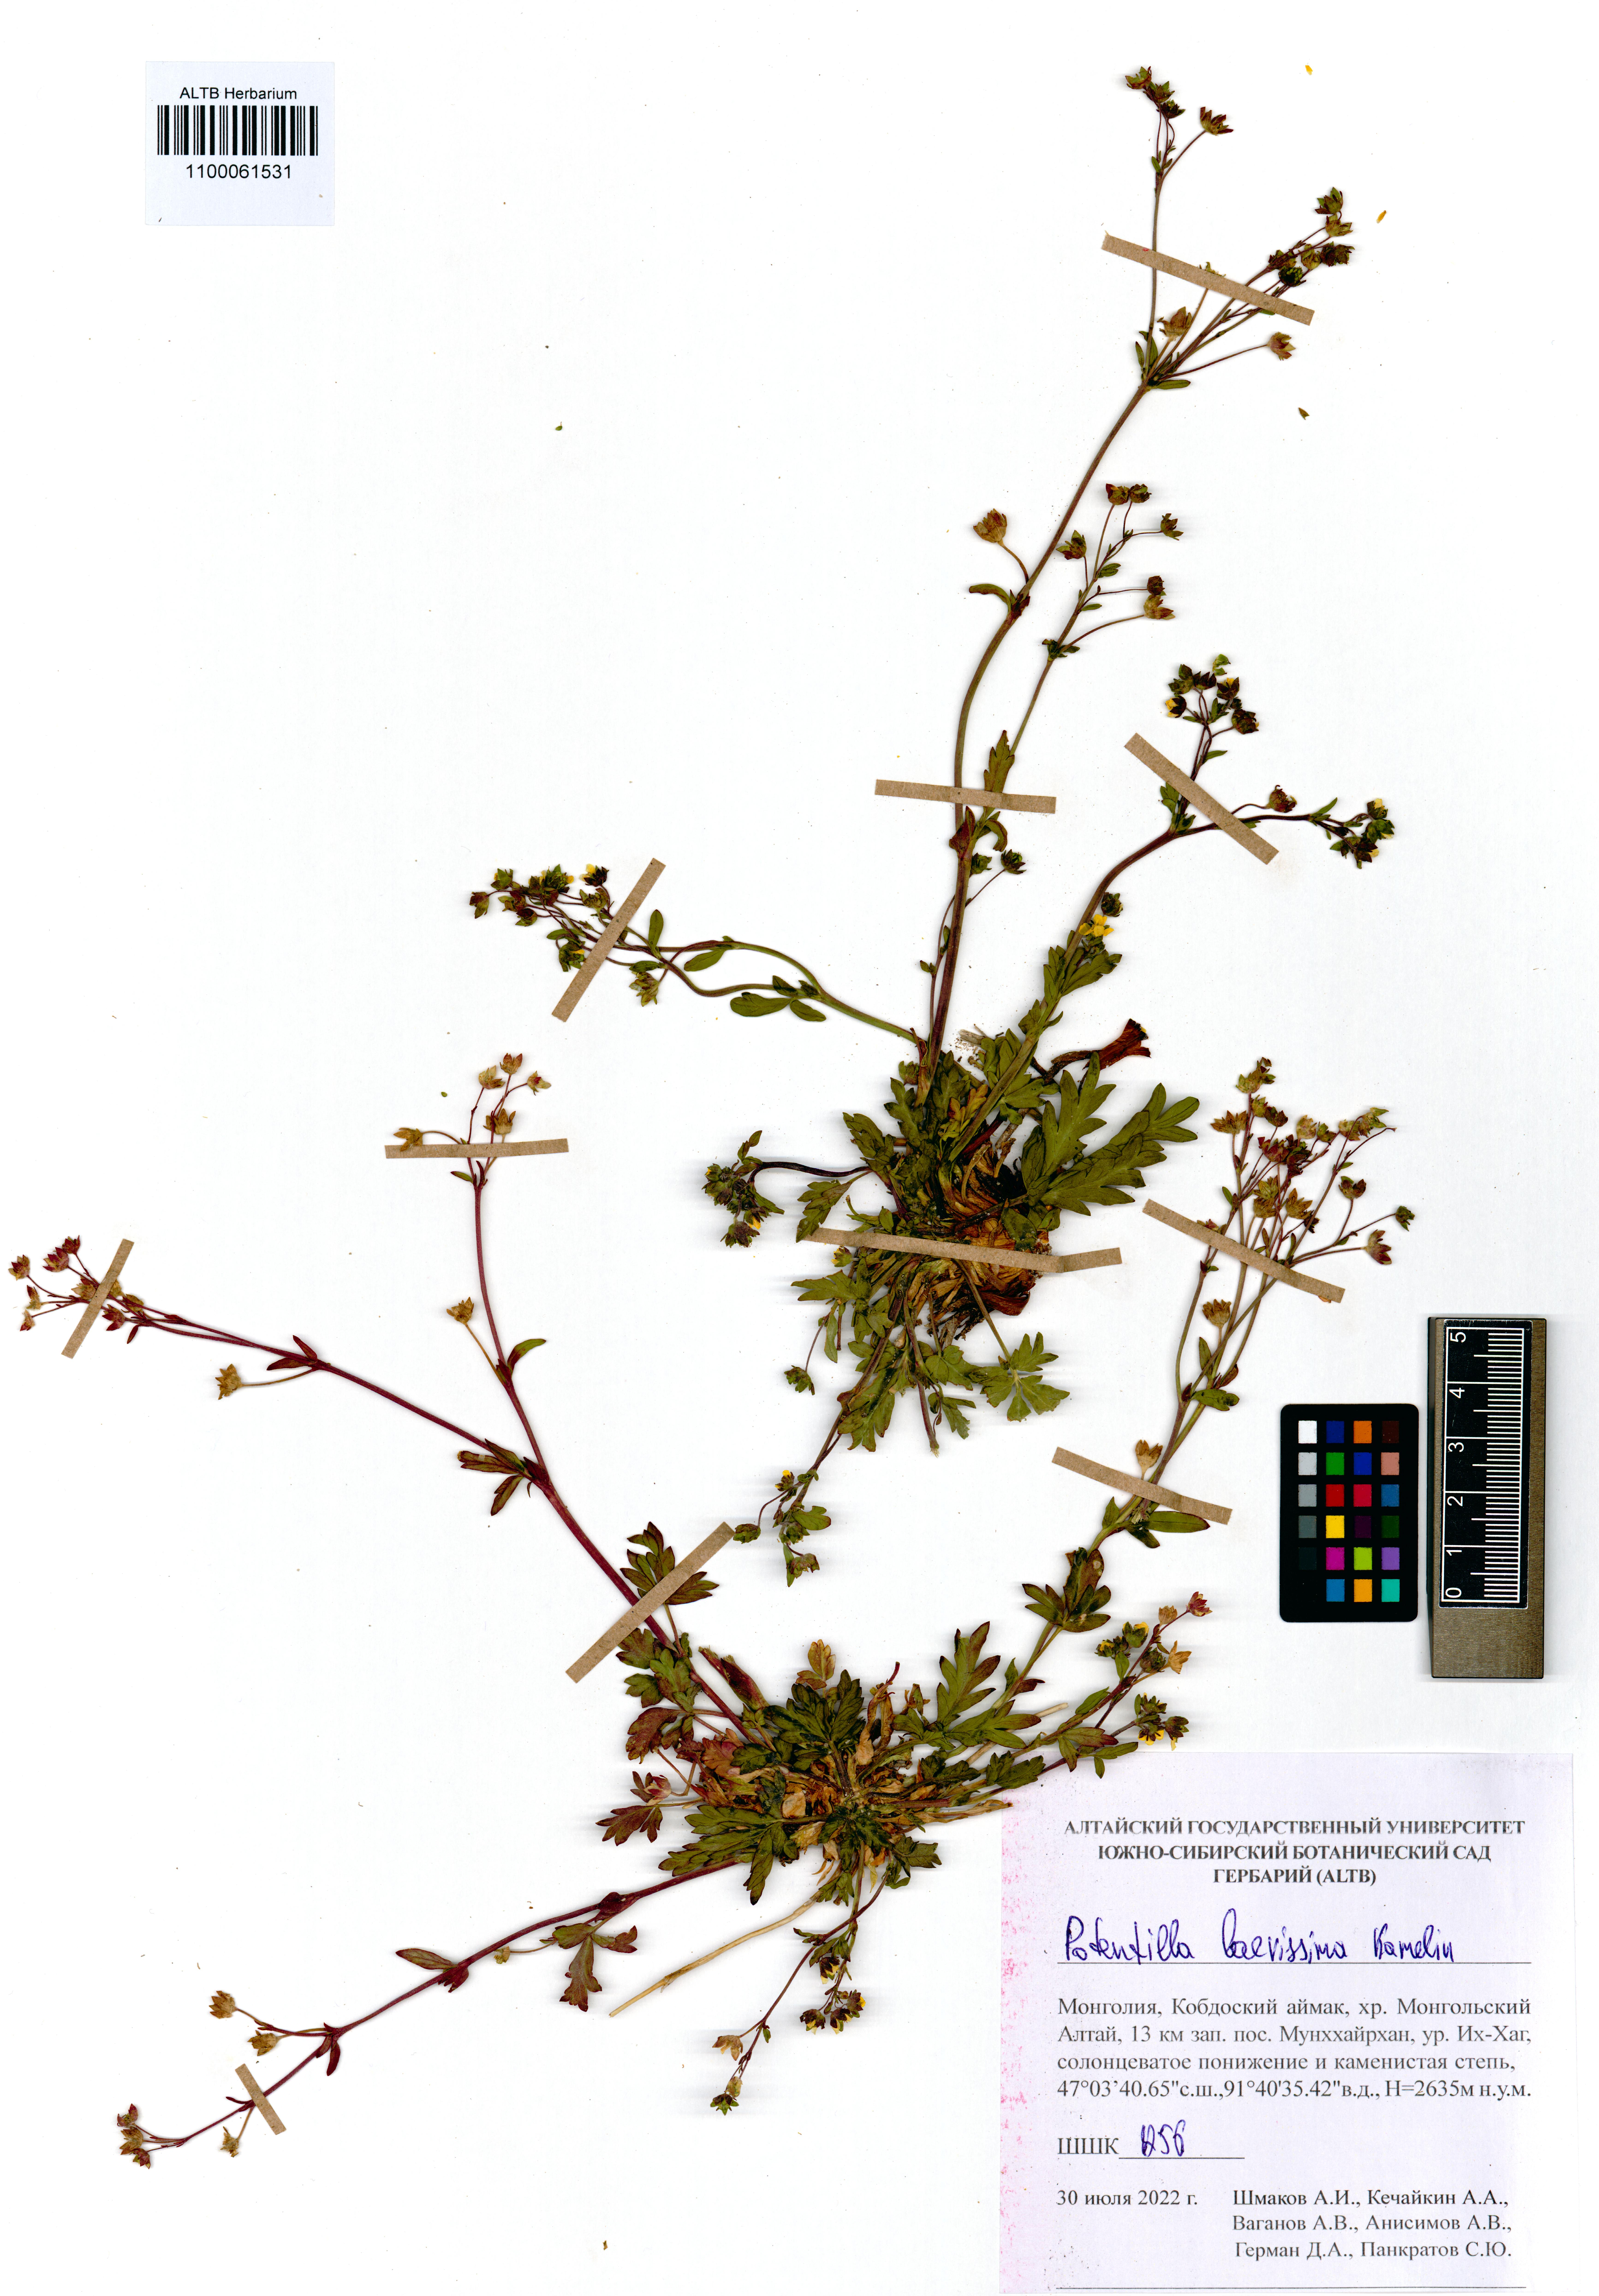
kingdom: Plantae
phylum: Tracheophyta
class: Magnoliopsida
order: Rosales
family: Rosaceae
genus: Potentilla
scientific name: Potentilla laevissima
